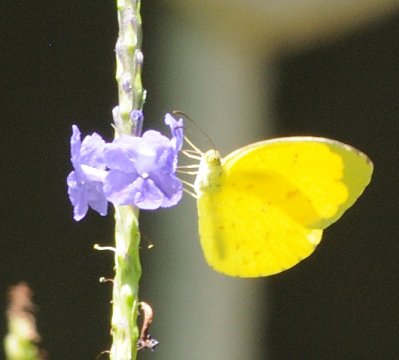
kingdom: Animalia
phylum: Arthropoda
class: Insecta
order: Lepidoptera
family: Pieridae
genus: Eurema
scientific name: Eurema hecabe
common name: Common Grass Yellow
